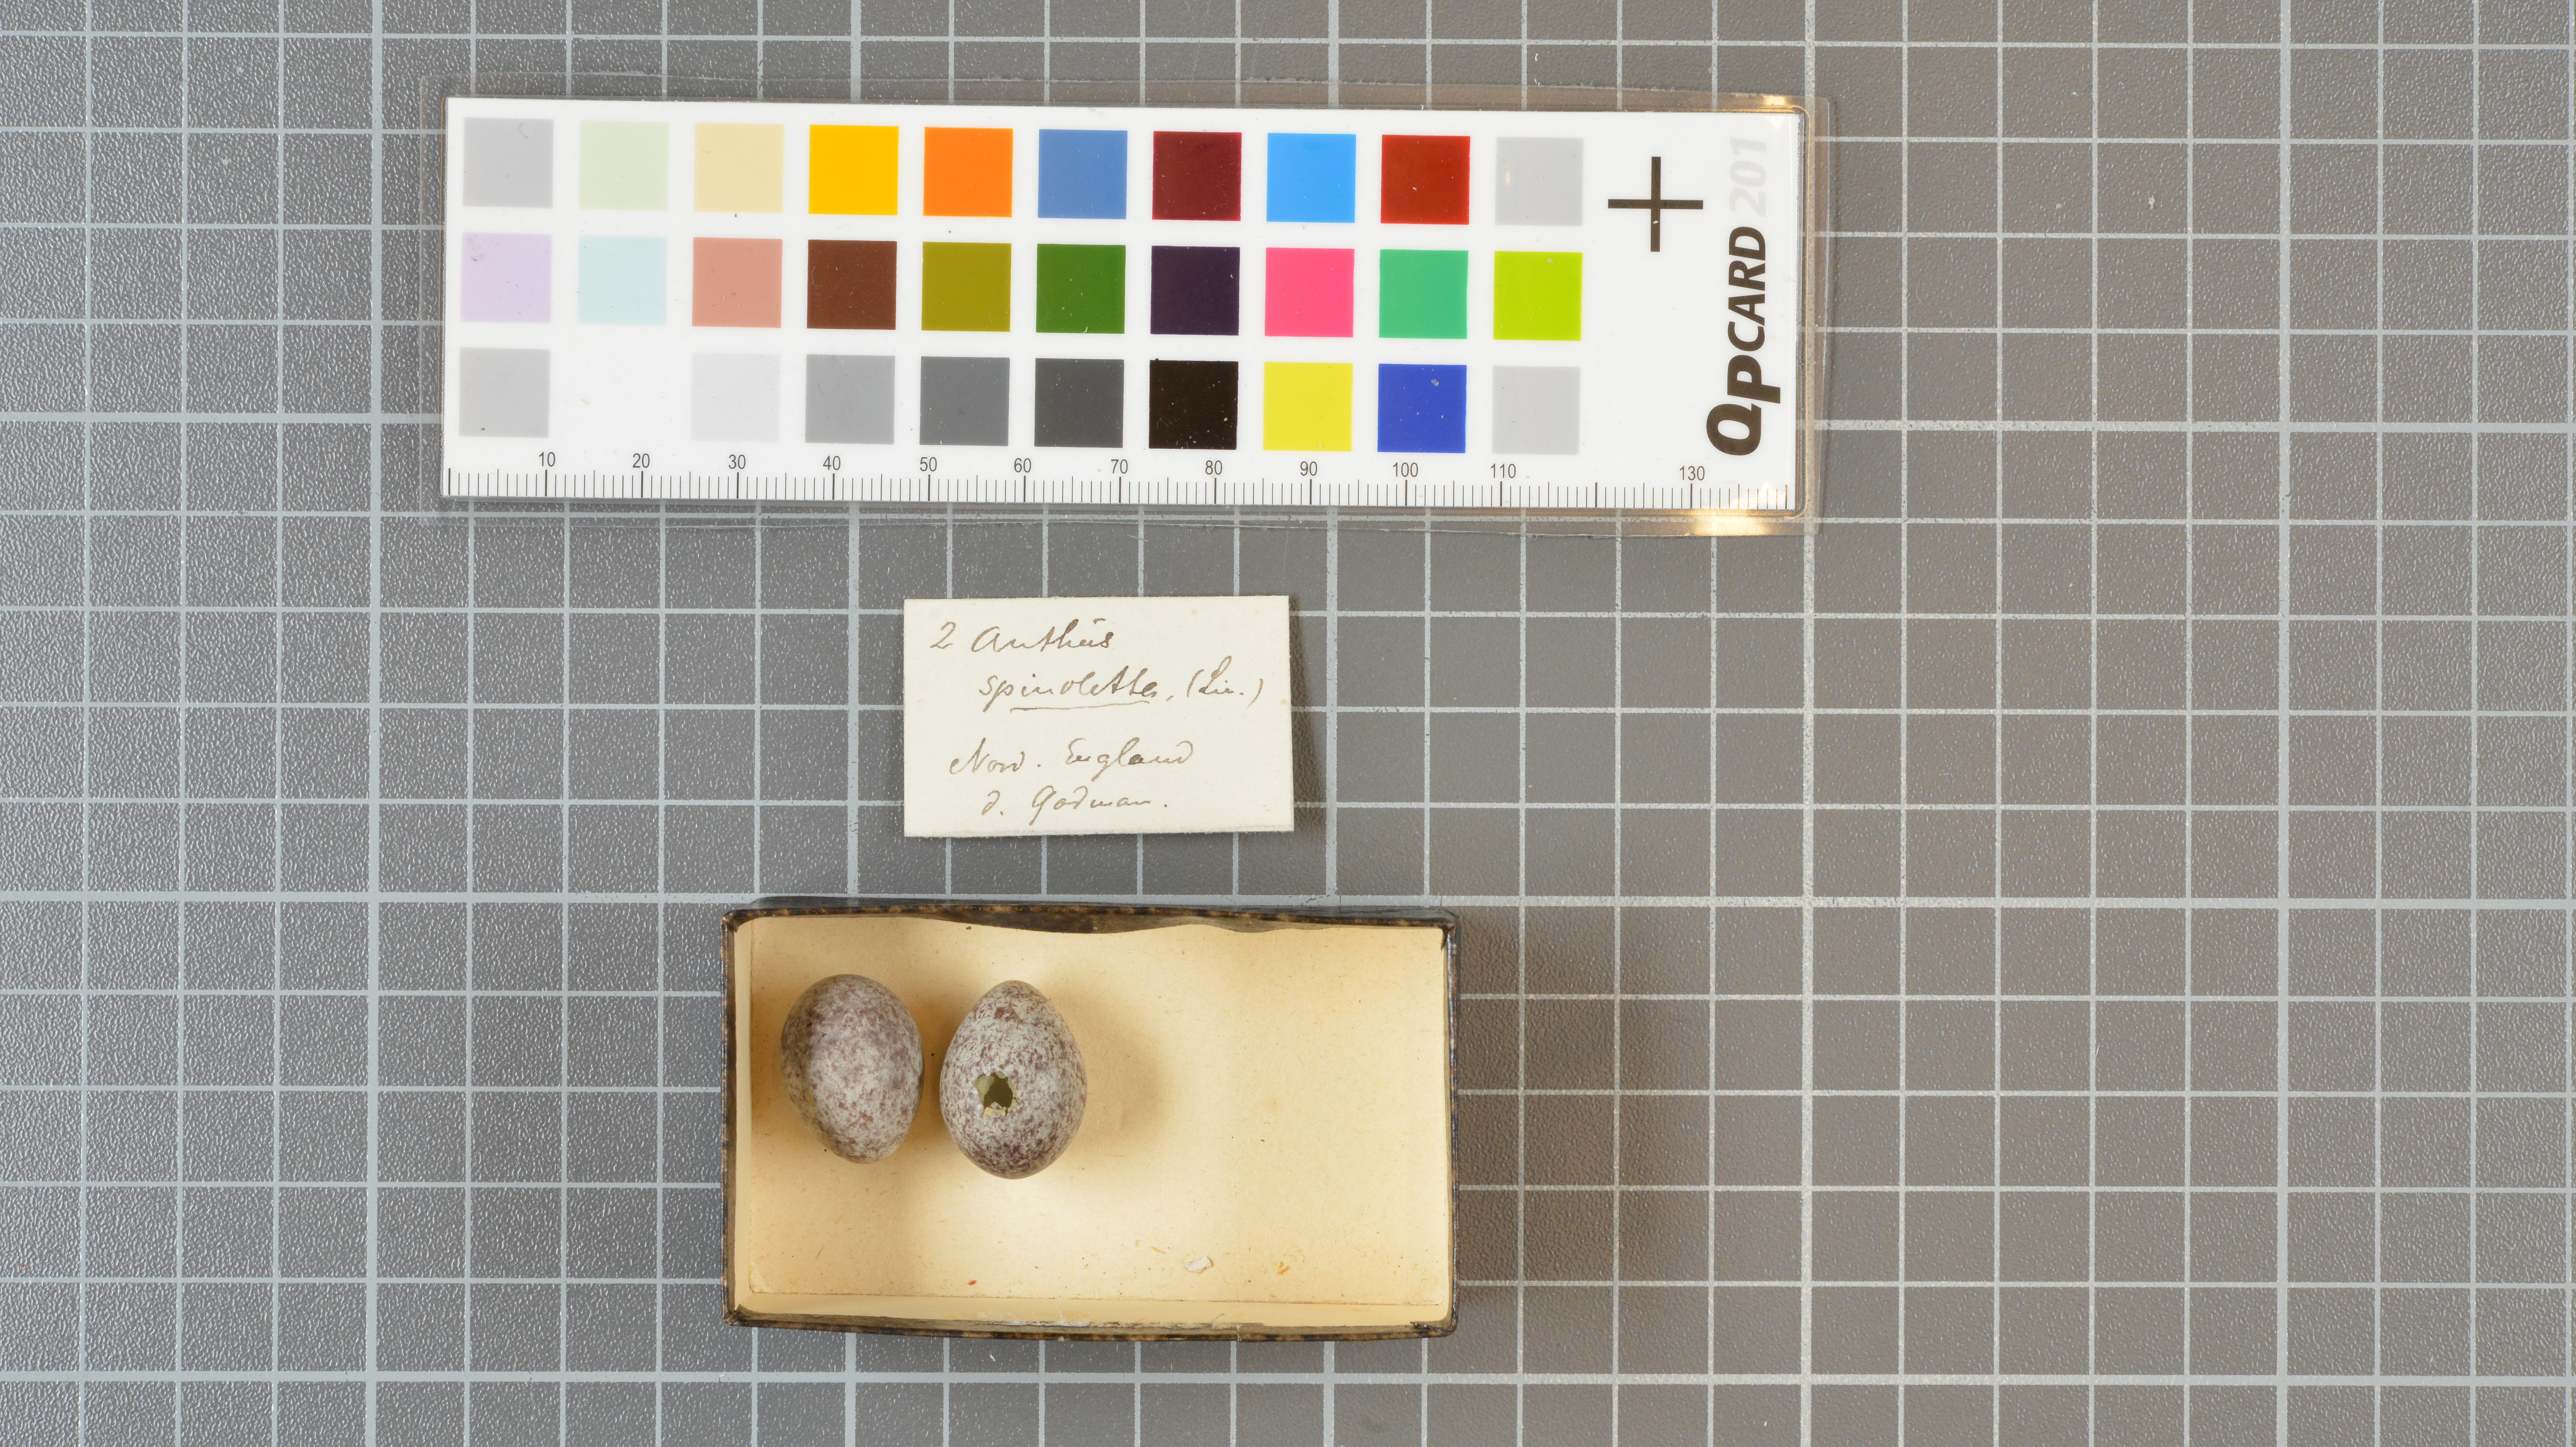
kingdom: Animalia
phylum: Chordata
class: Aves
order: Passeriformes
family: Motacillidae
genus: Anthus
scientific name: Anthus spinoletta
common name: Water pipit
